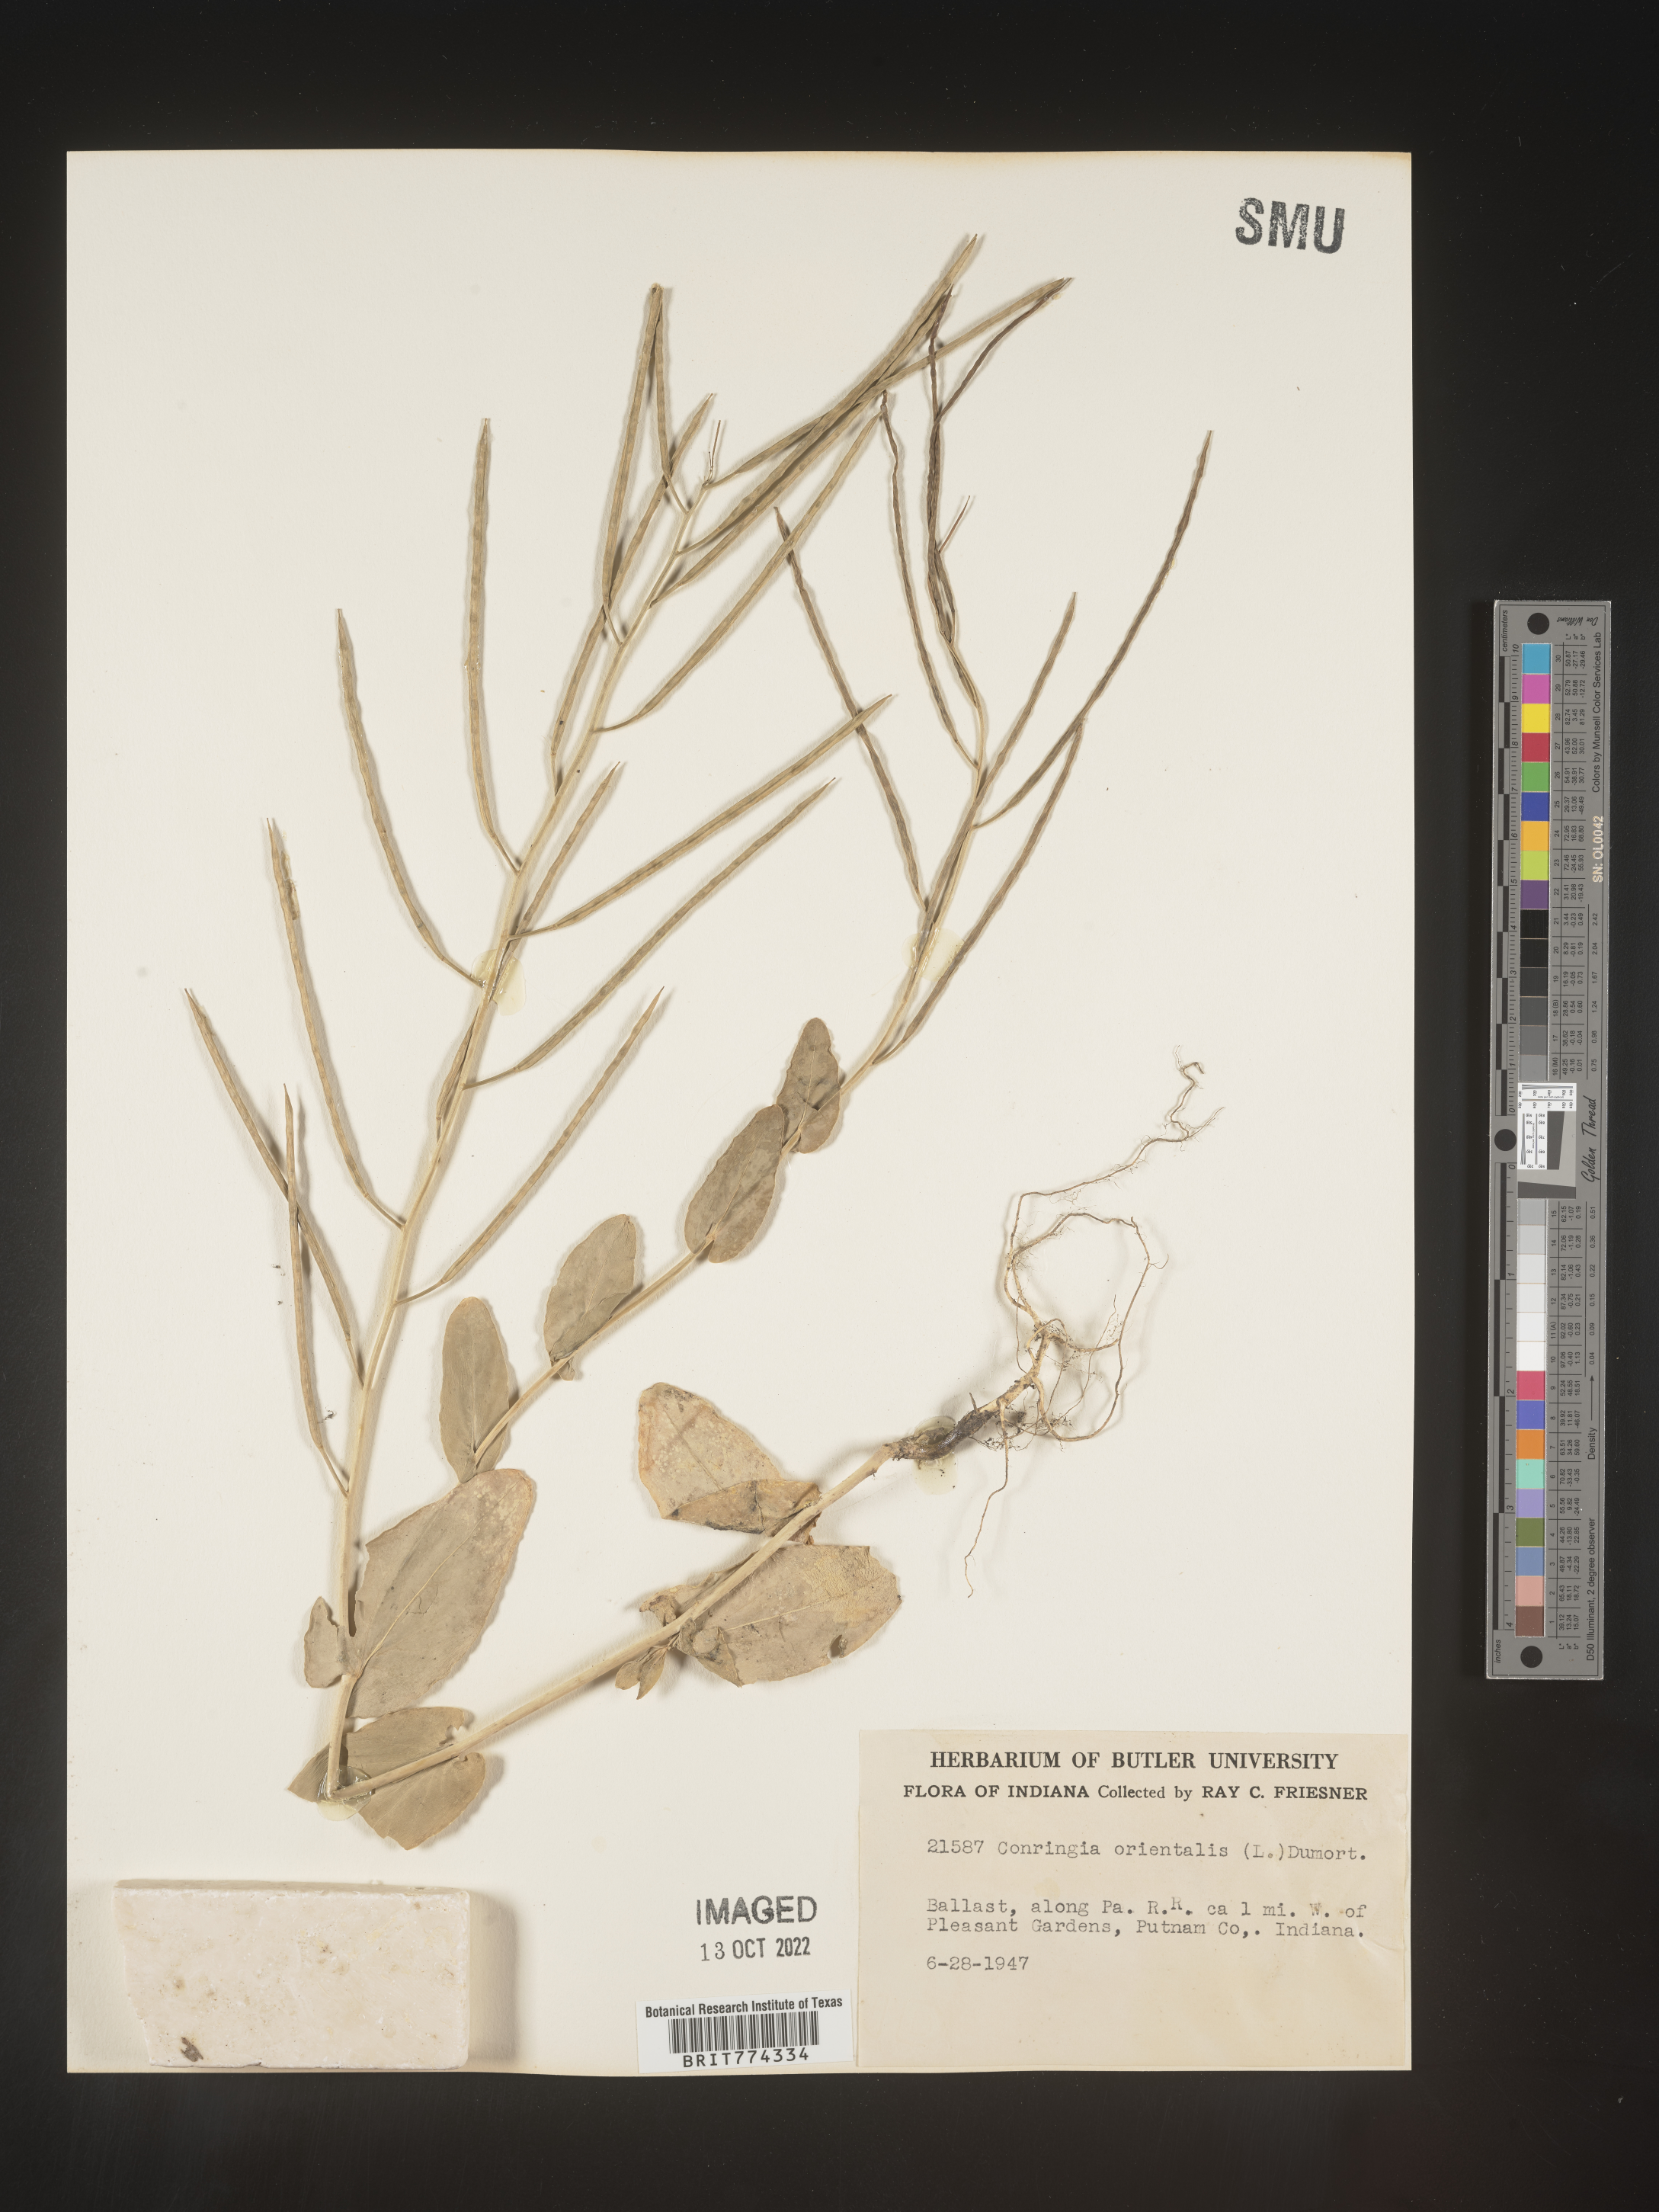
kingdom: Plantae
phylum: Tracheophyta
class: Magnoliopsida
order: Brassicales
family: Brassicaceae
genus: Conringia
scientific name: Conringia
